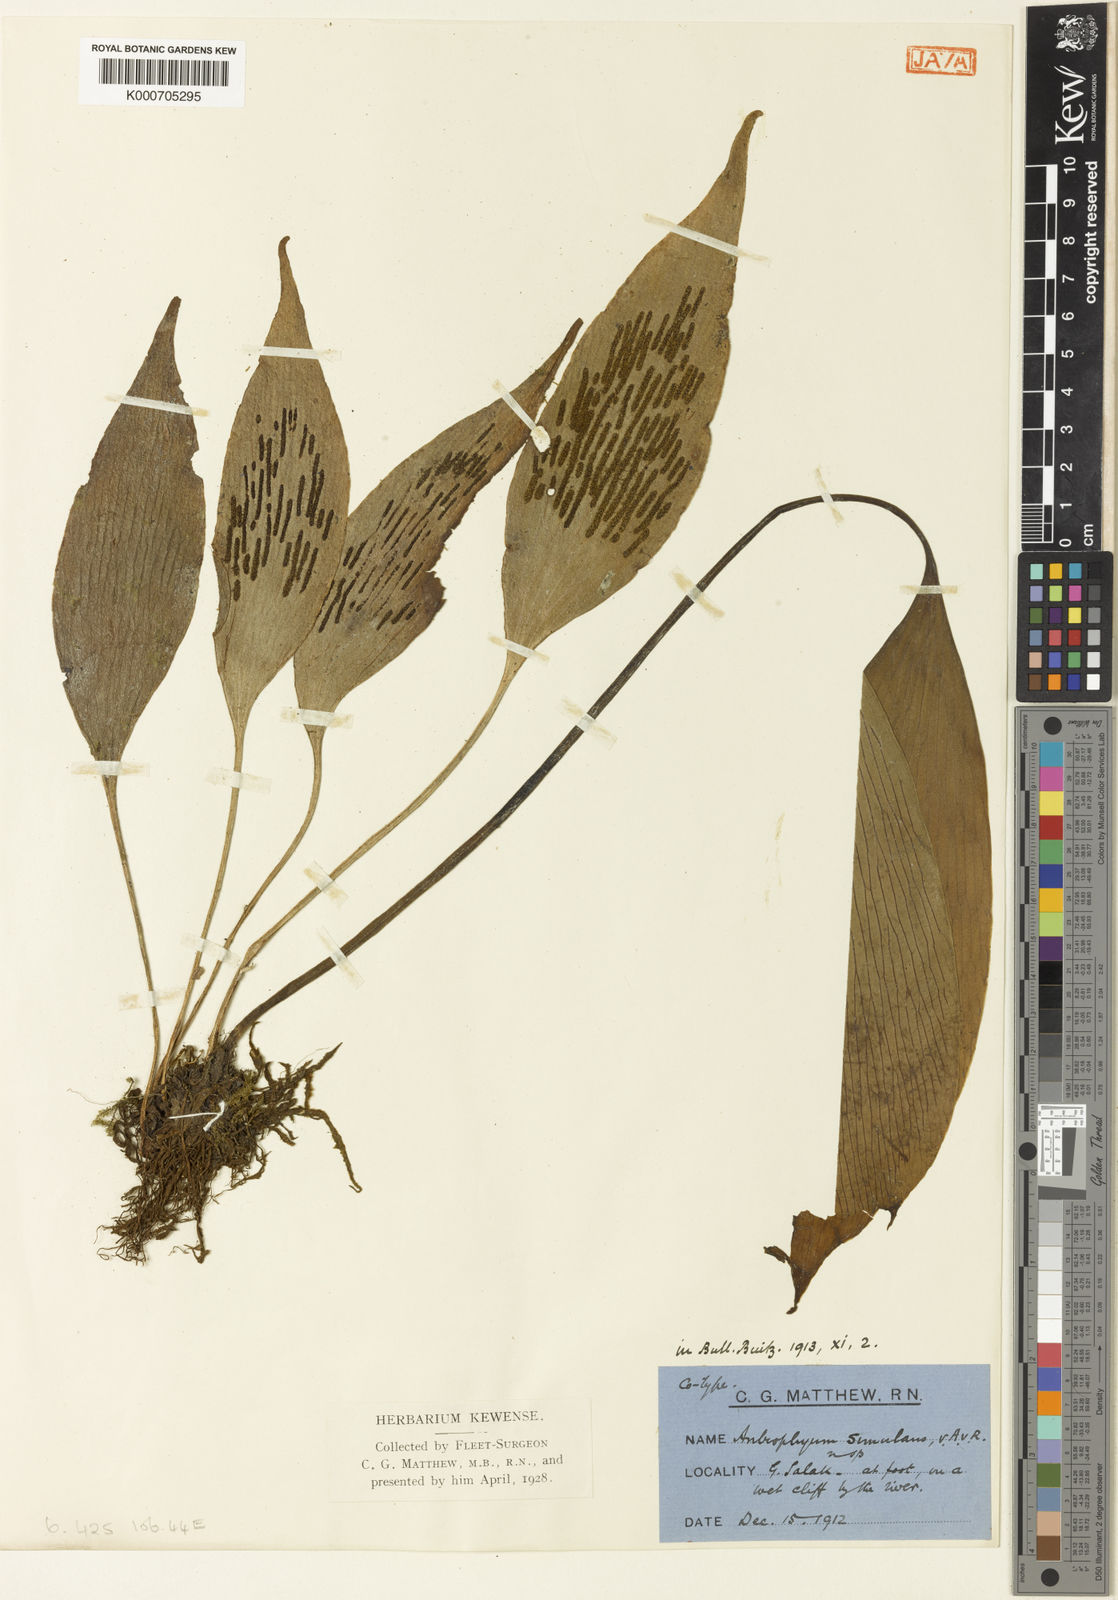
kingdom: Plantae
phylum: Tracheophyta
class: Polypodiopsida
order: Polypodiales
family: Pteridaceae
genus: Antrophyum
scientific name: Antrophyum simulans
